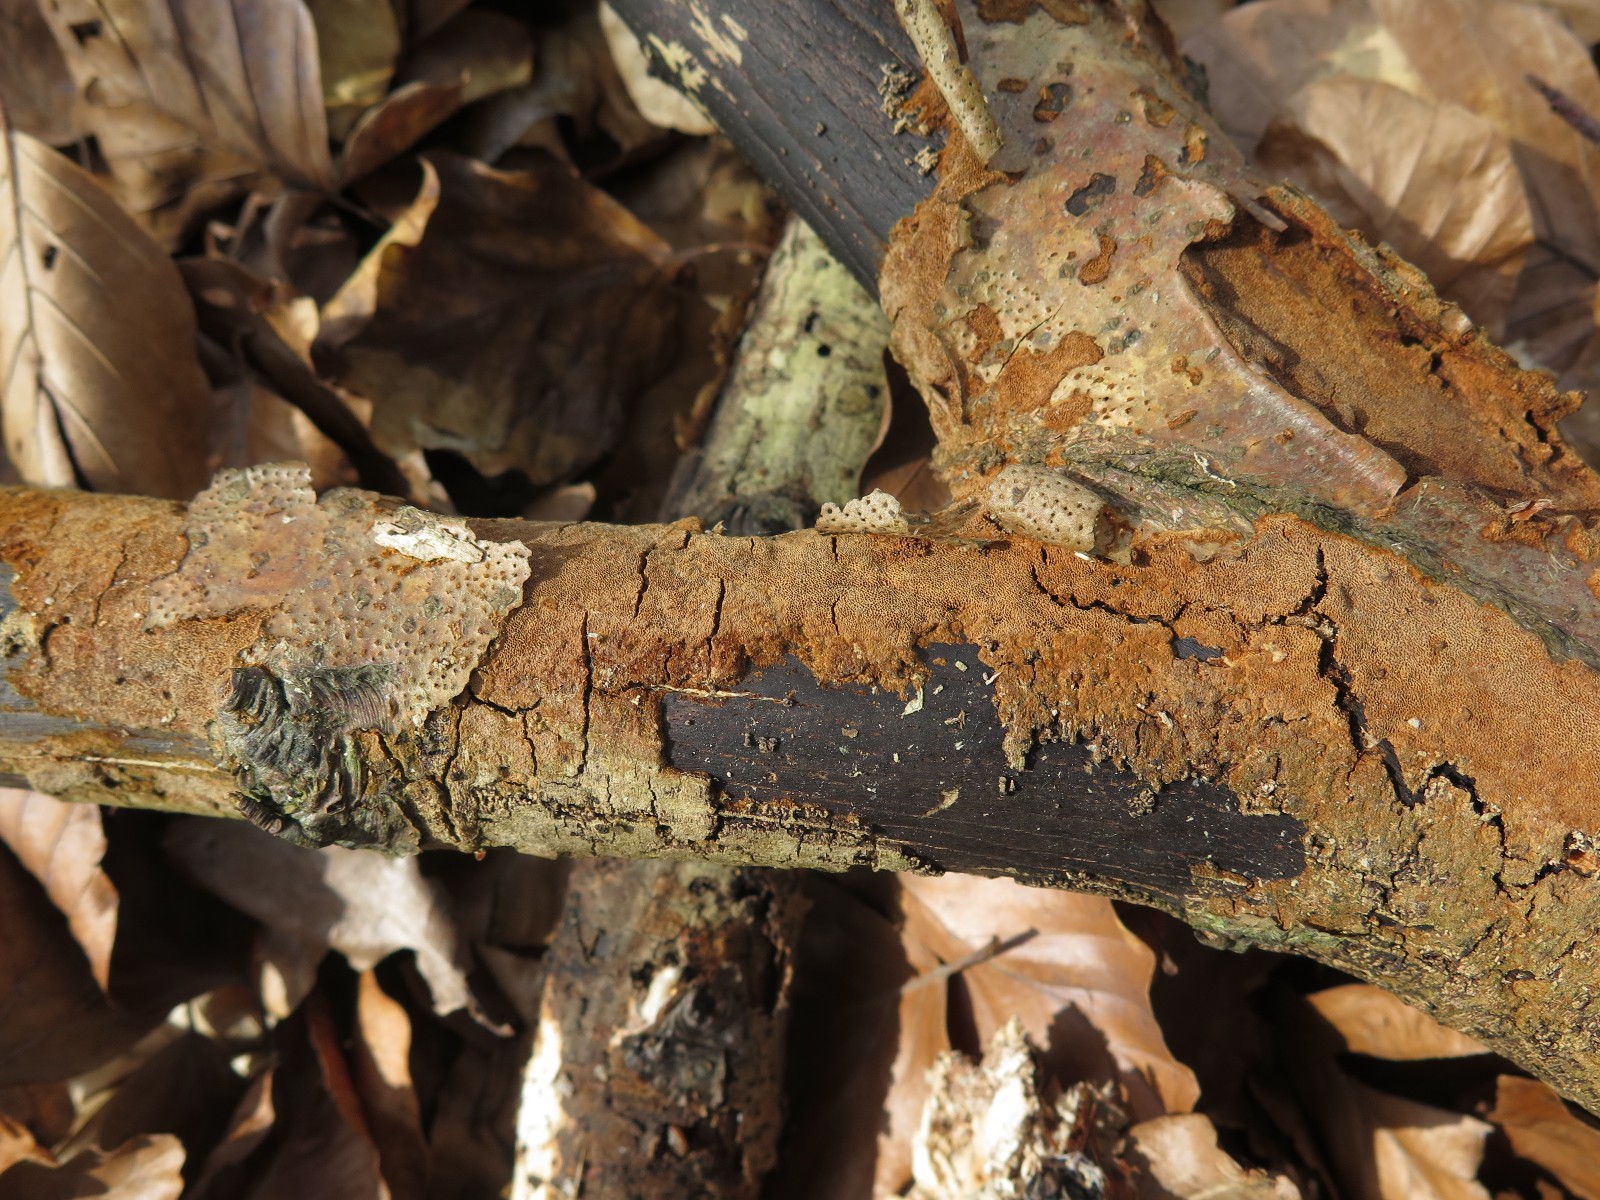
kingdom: Fungi
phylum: Basidiomycota
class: Agaricomycetes
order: Hymenochaetales
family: Hymenochaetaceae
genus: Fuscoporia
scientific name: Fuscoporia ferrea
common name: skorpe-ildporesvamp
